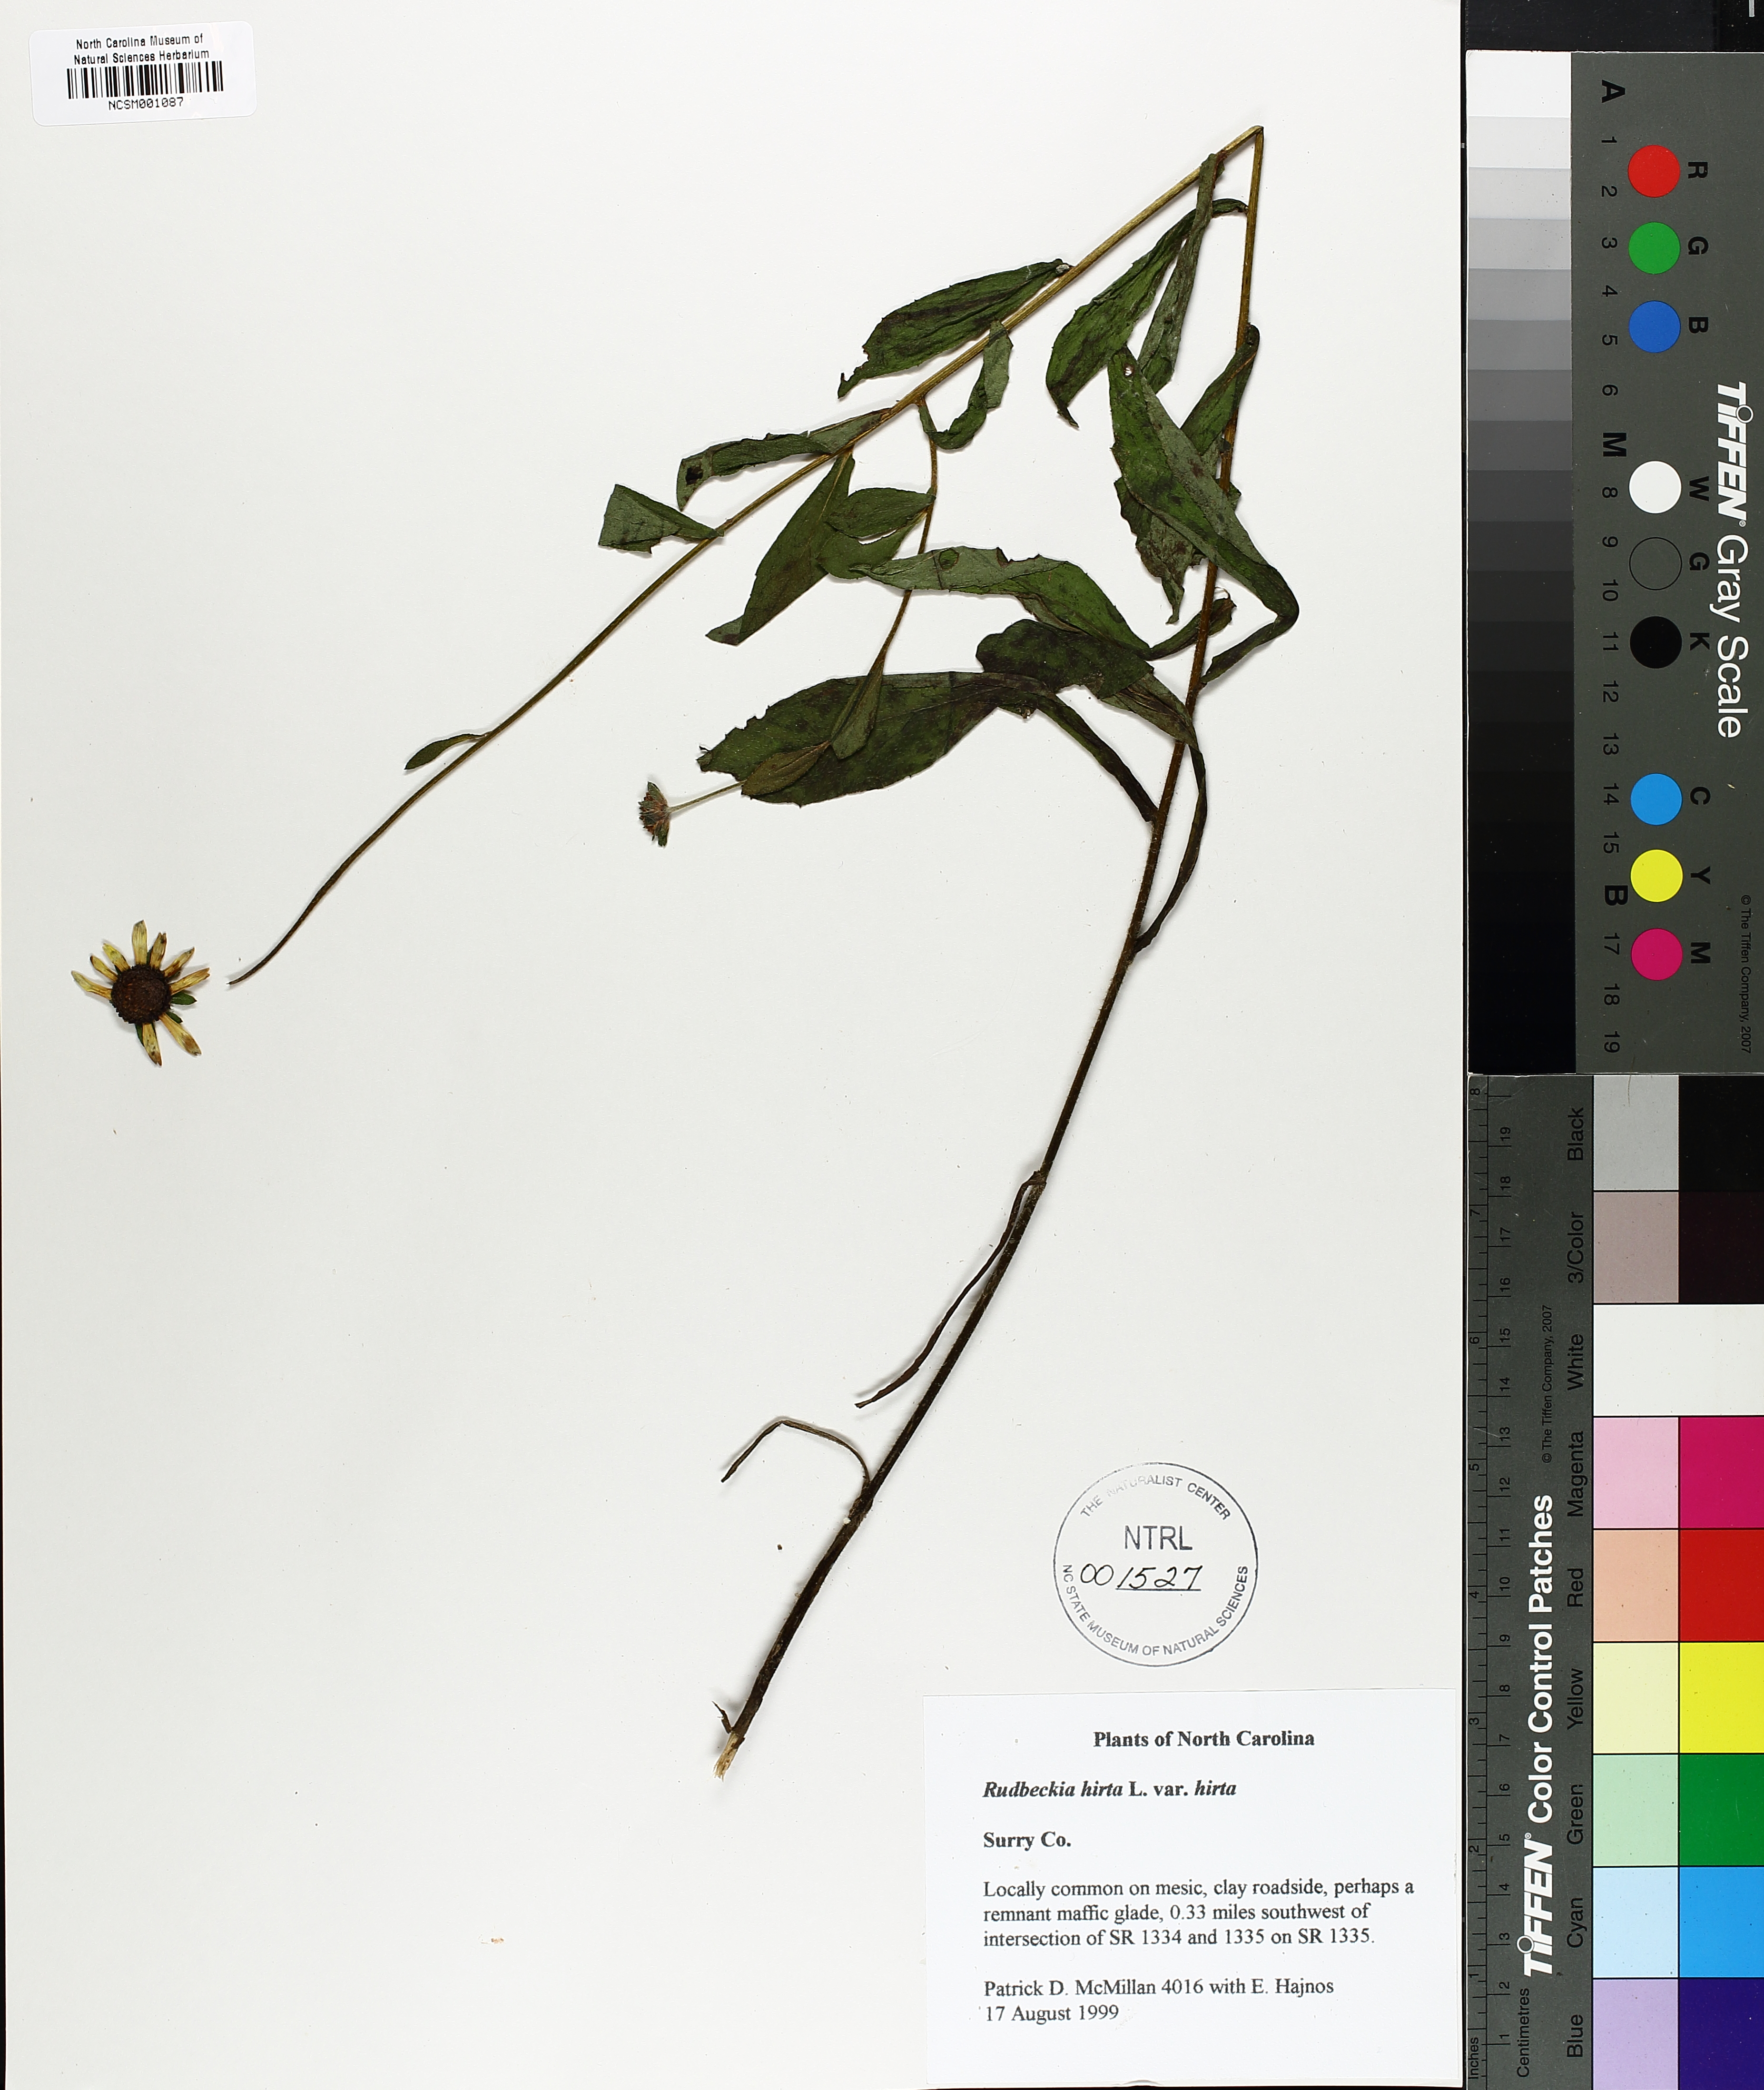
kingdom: Plantae
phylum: Tracheophyta
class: Magnoliopsida
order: Asterales
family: Asteraceae
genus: Rudbeckia
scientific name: Rudbeckia hirta
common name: Black-eyed-susan
